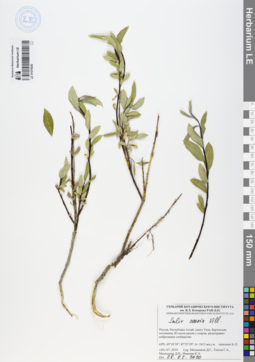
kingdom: Plantae
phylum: Tracheophyta
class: Magnoliopsida
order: Malpighiales
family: Salicaceae
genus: Salix
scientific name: Salix caesia
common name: Blue willow
